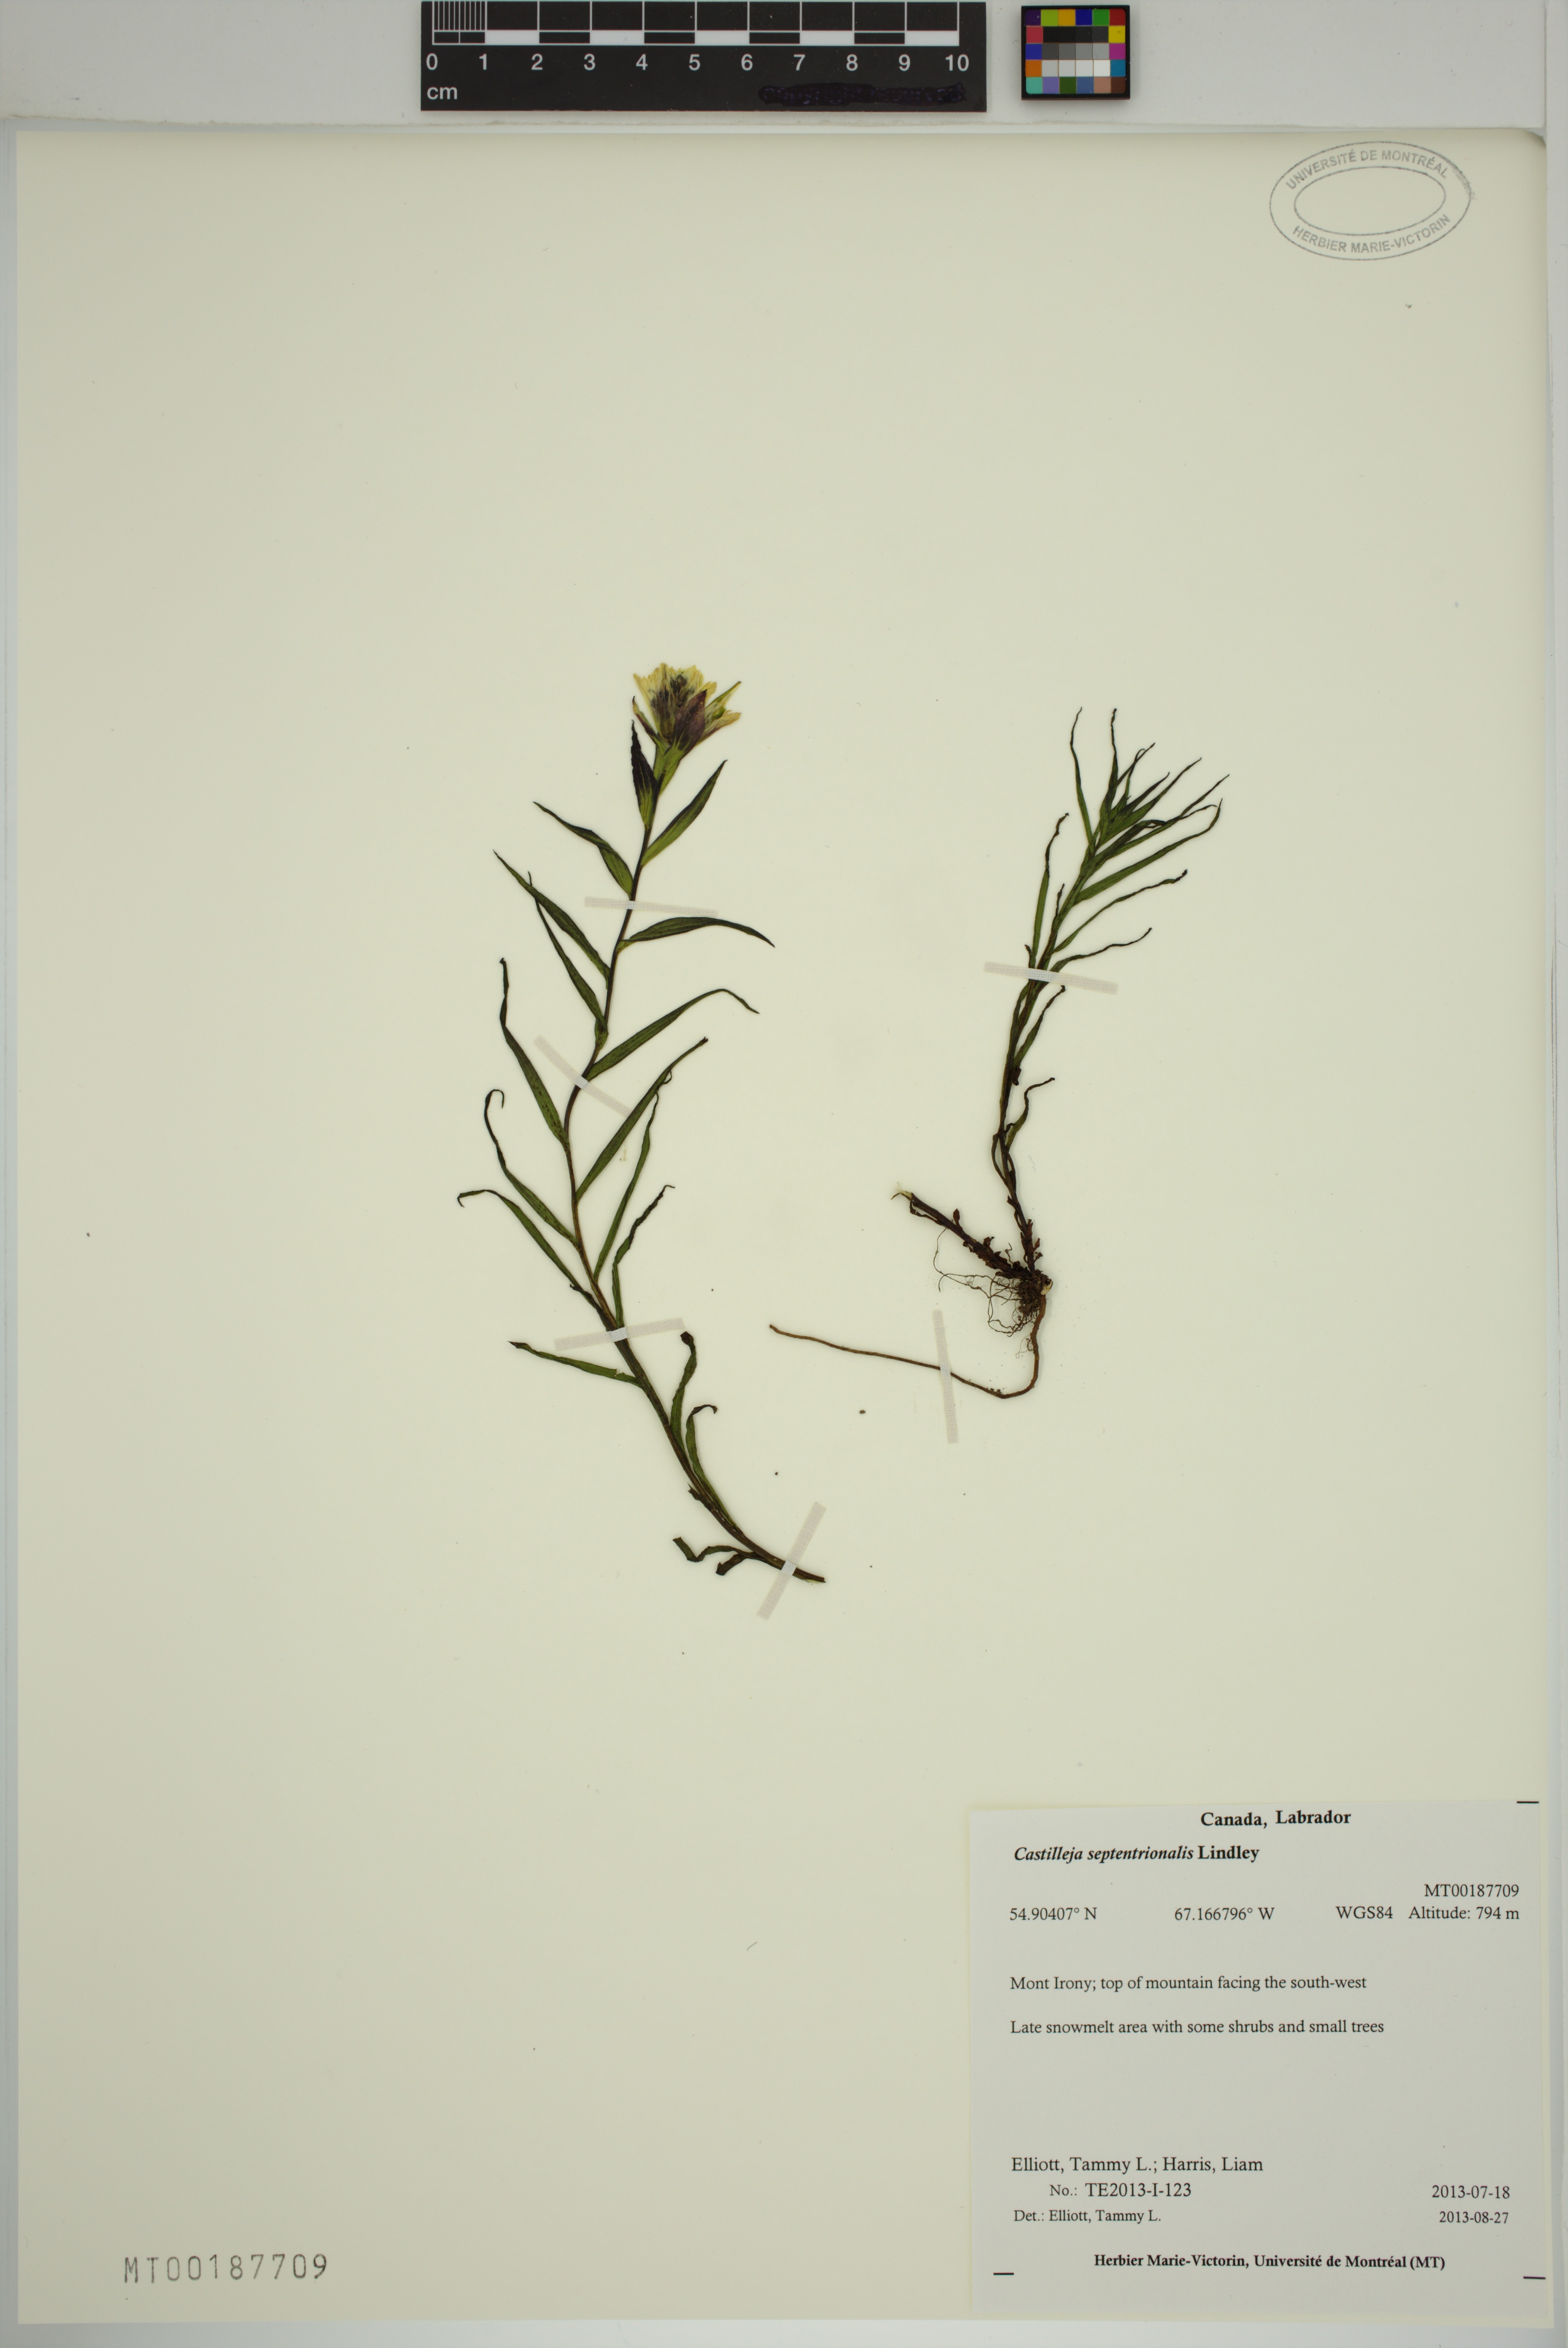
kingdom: Plantae
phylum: Tracheophyta
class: Magnoliopsida
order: Lamiales
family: Orobanchaceae
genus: Castilleja
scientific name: Castilleja septentrionalis
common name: Northeastern paintbrush
